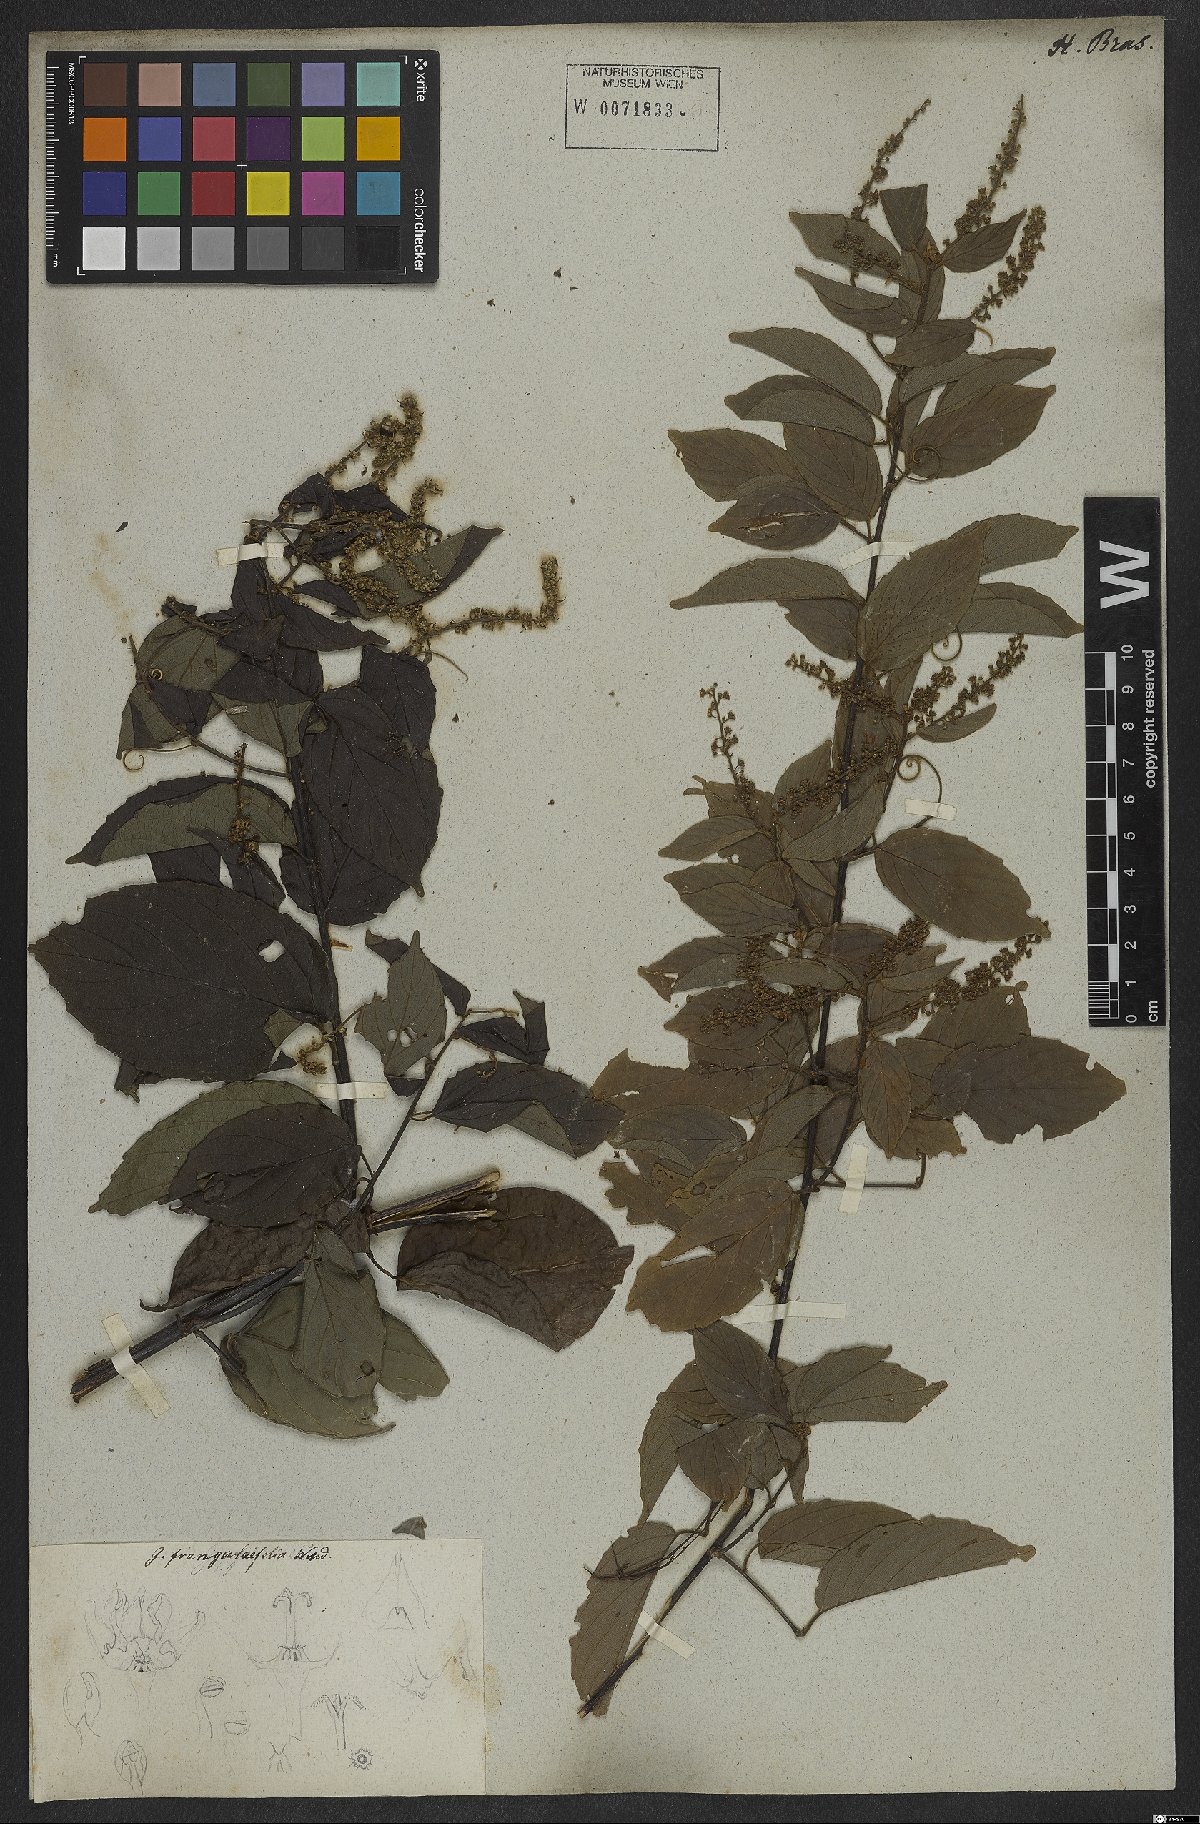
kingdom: Plantae
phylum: Tracheophyta
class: Magnoliopsida
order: Rosales
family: Rhamnaceae
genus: Gouania
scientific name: Gouania blanchetiana
